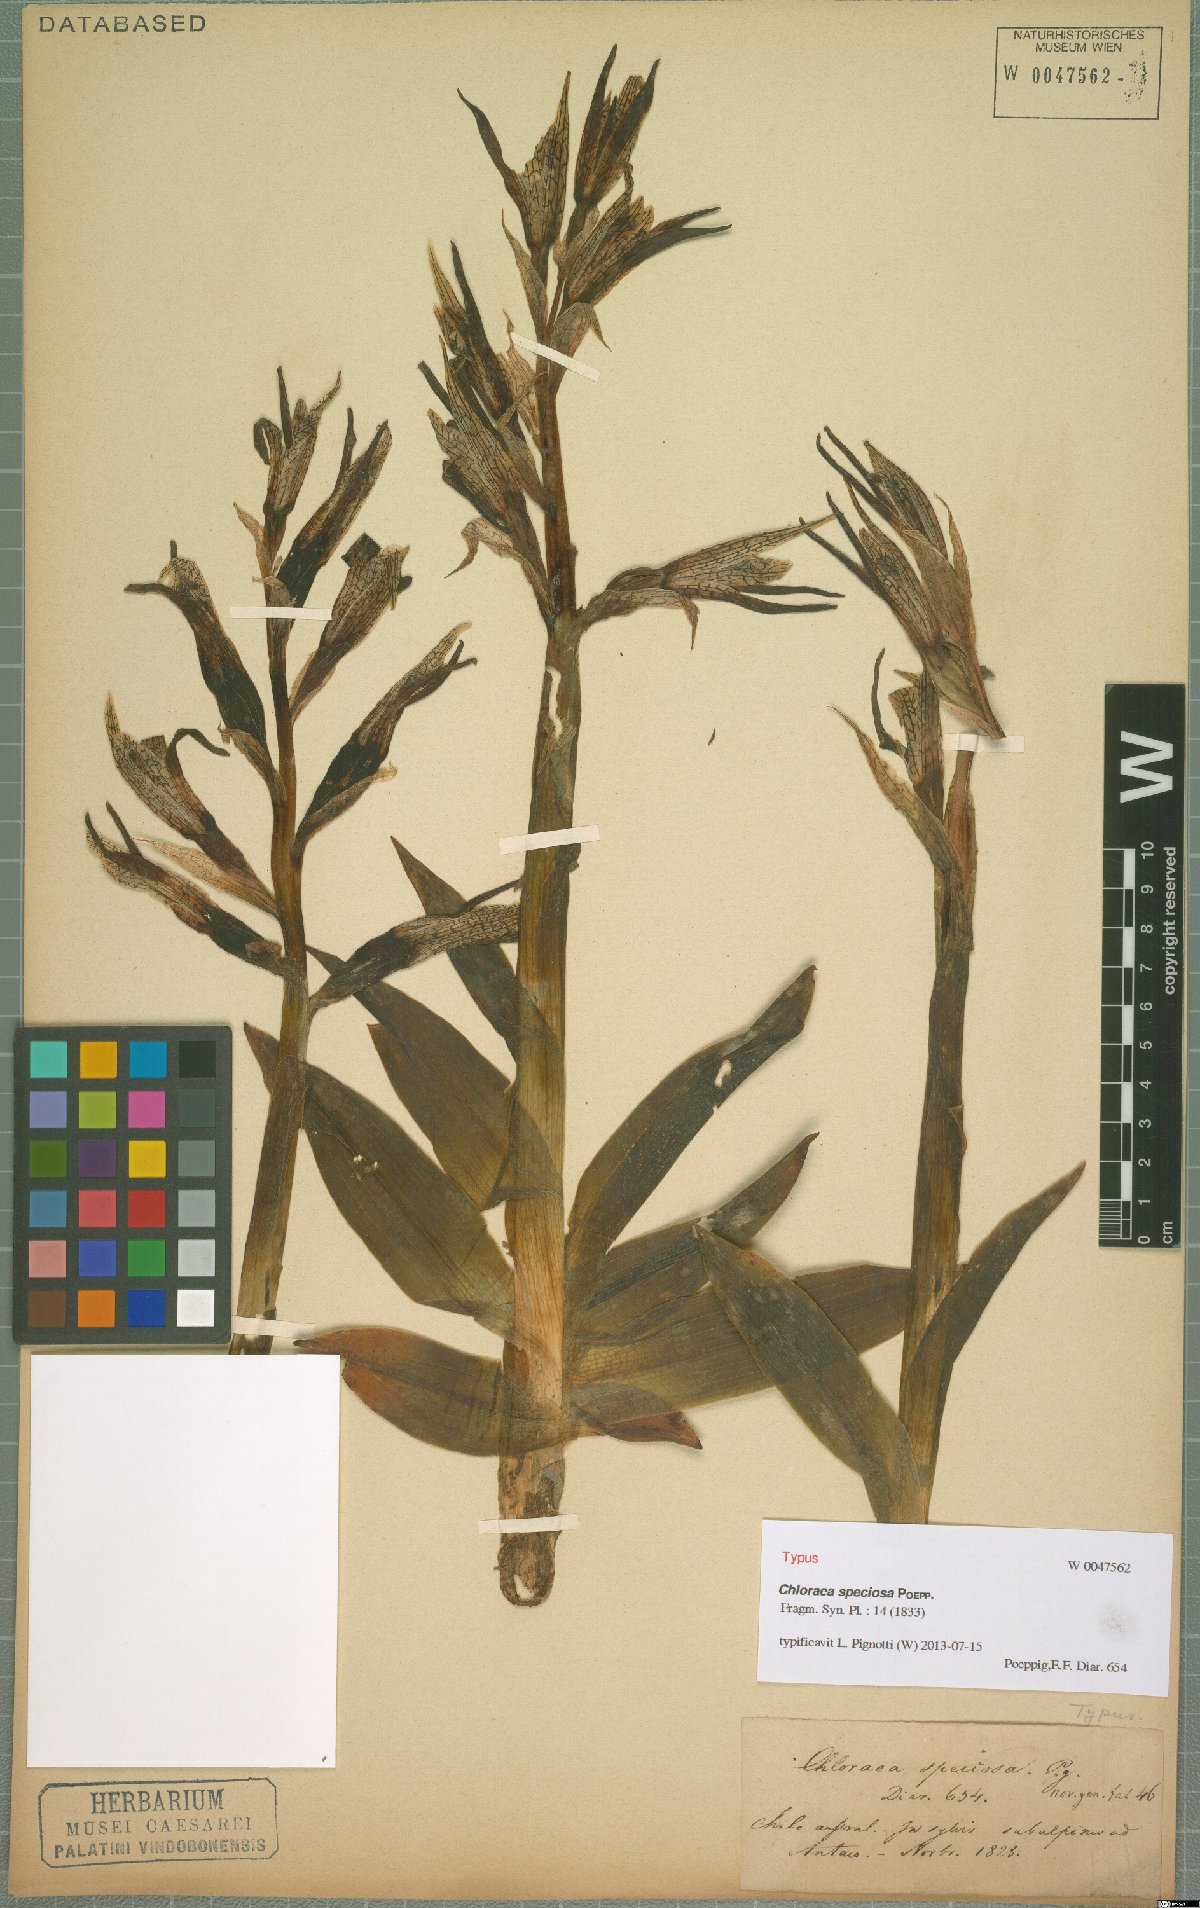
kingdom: Plantae
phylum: Tracheophyta
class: Liliopsida
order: Asparagales
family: Orchidaceae
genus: Chloraea
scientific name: Chloraea speciosa
